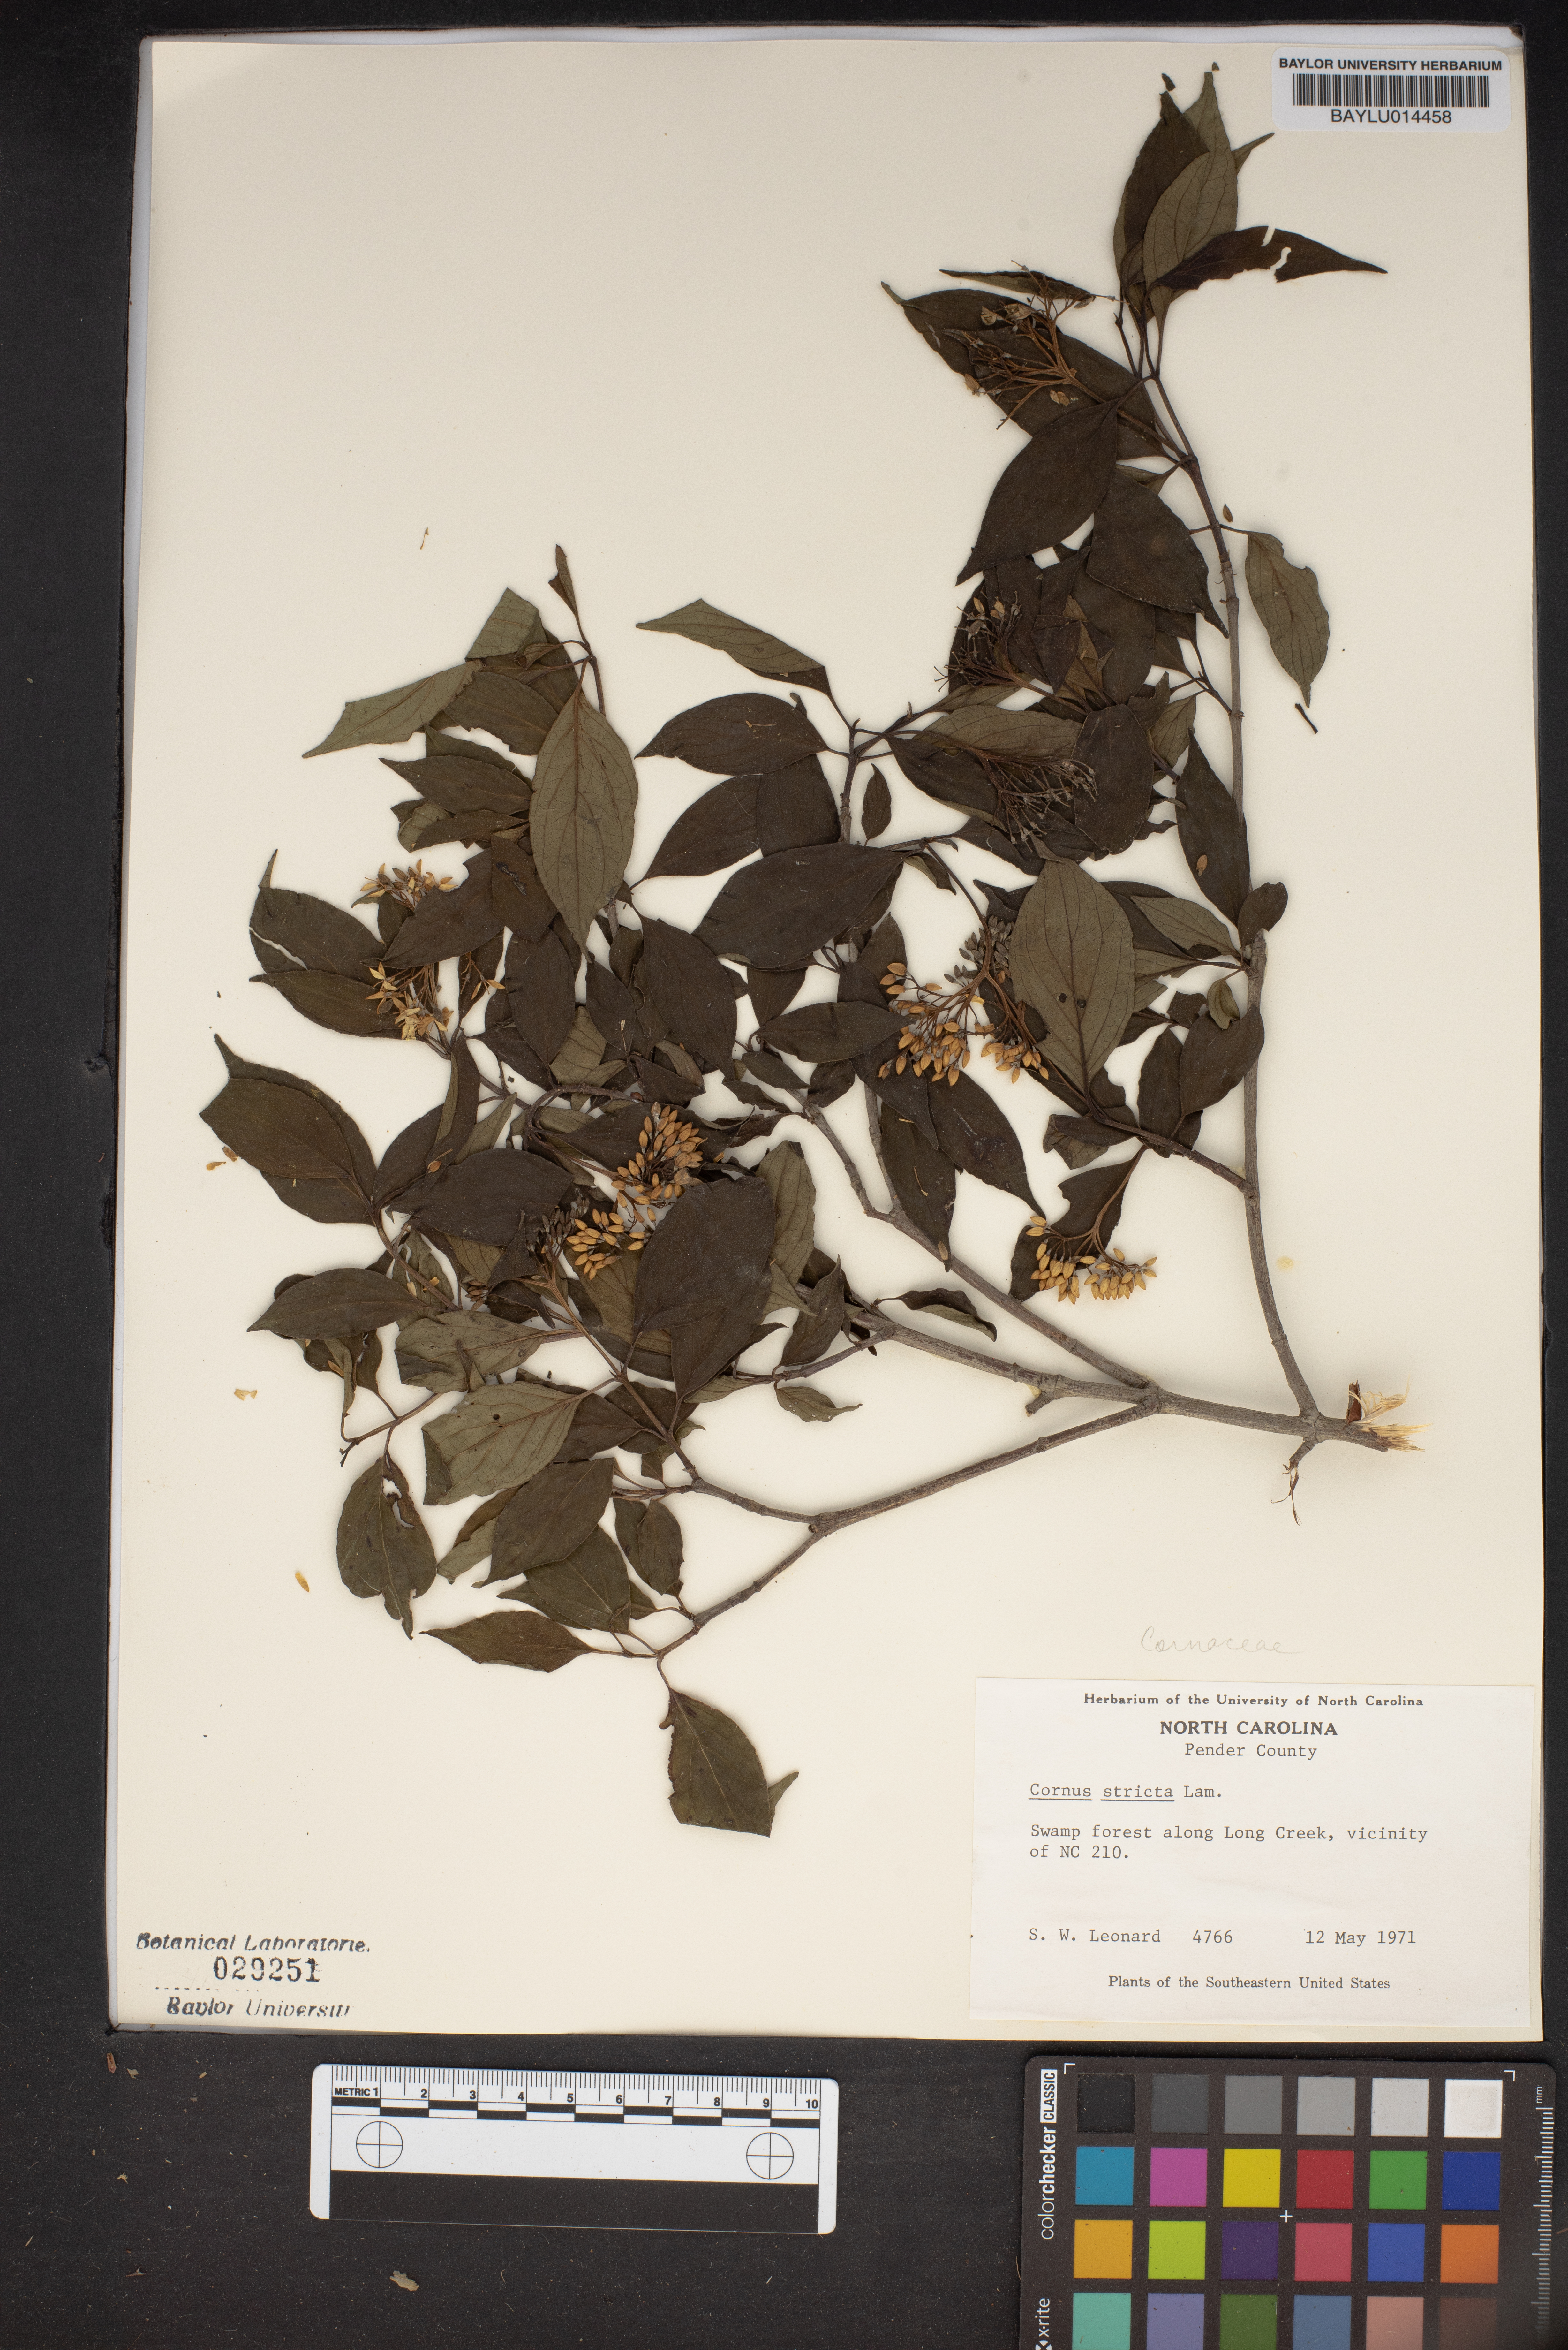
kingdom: Plantae
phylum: Tracheophyta
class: Magnoliopsida
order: Cornales
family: Cornaceae
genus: Cornus
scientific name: Cornus foemina
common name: Swamp dogwood
